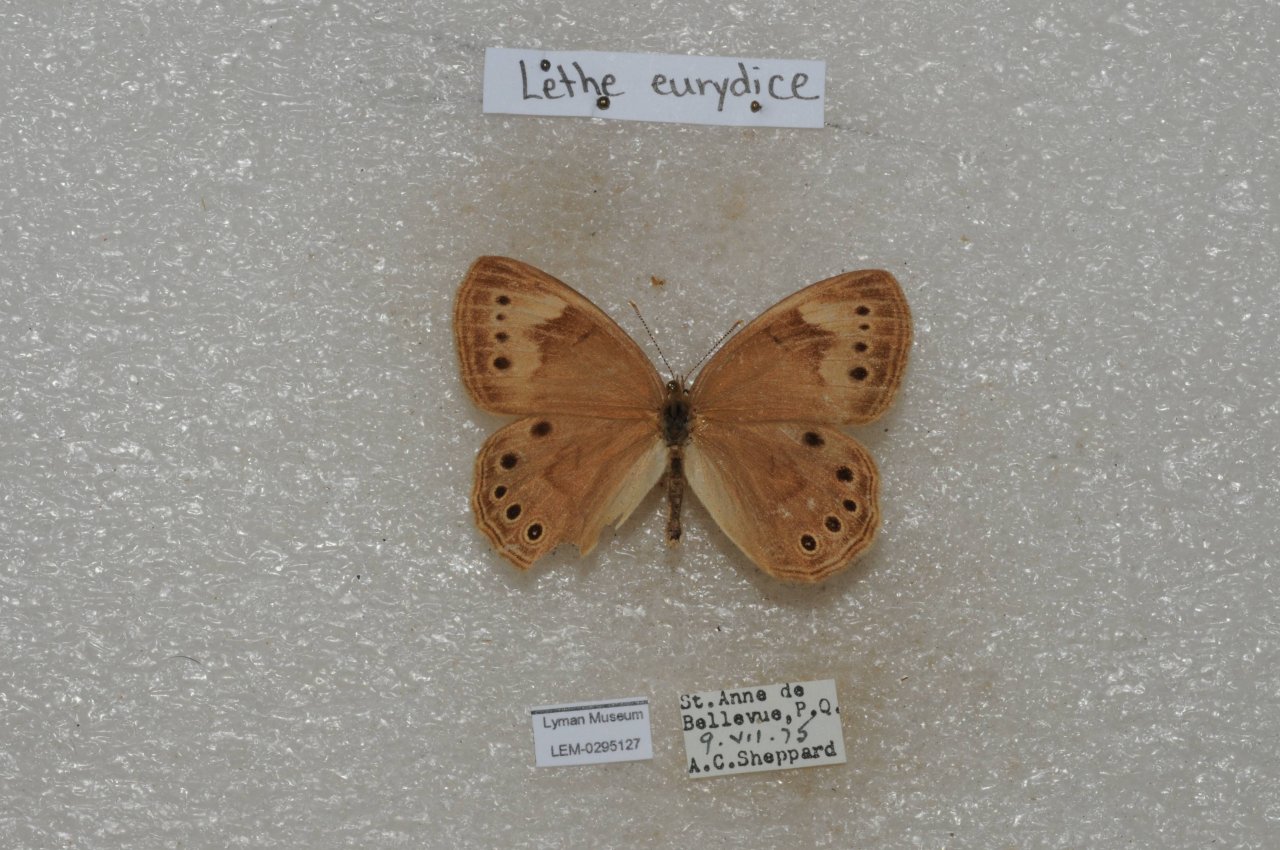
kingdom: Animalia
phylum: Arthropoda
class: Insecta
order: Lepidoptera
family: Nymphalidae
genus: Lethe
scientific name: Lethe eurydice
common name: Eyed Brown
